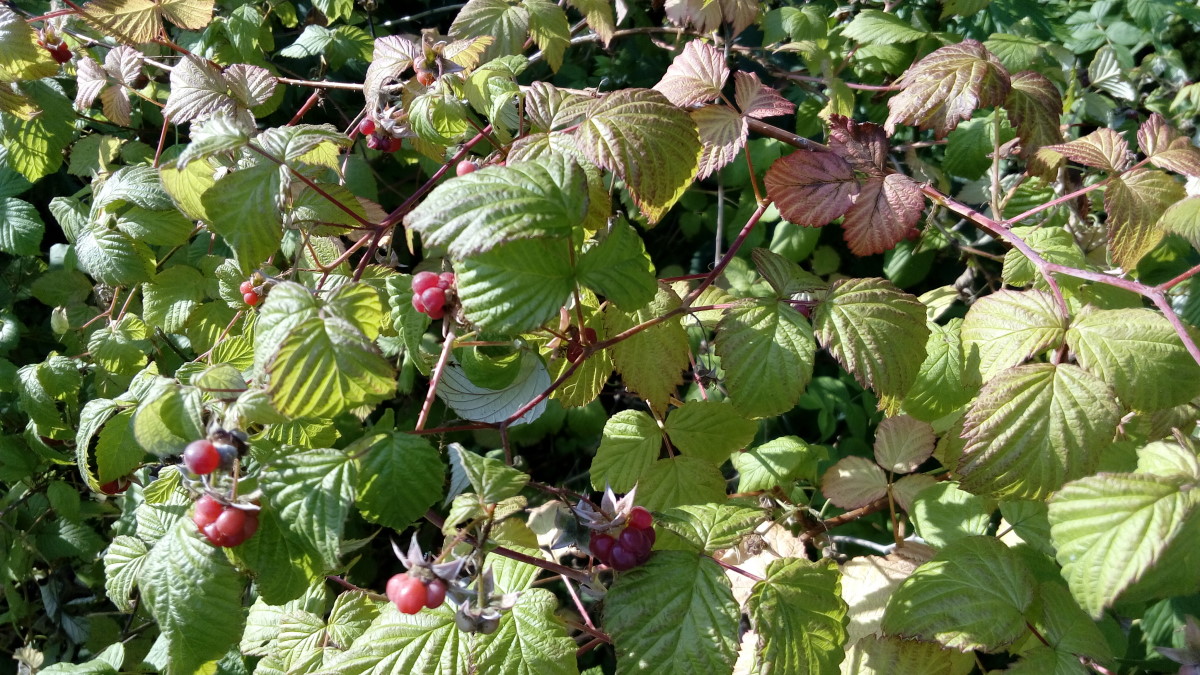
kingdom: Plantae
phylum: Tracheophyta
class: Magnoliopsida
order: Rosales
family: Rosaceae
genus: Rubus
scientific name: Rubus idaeus
